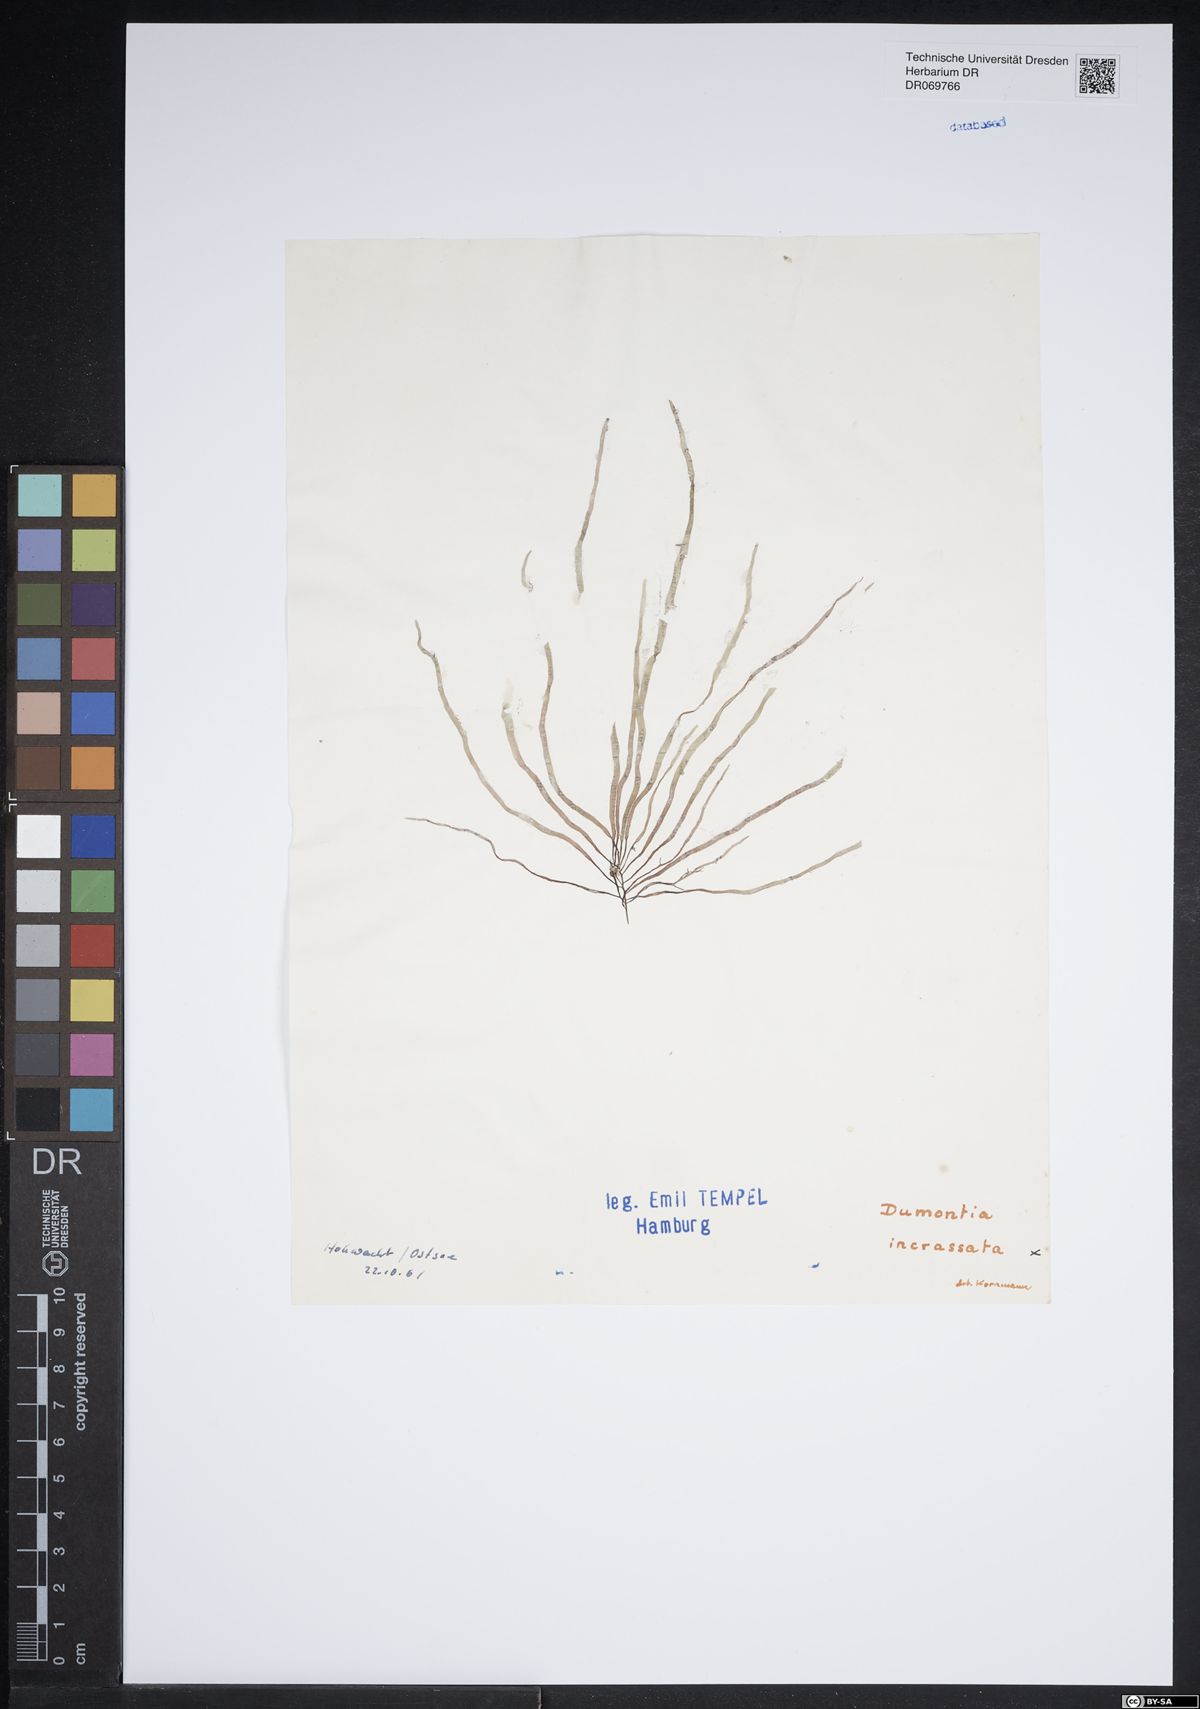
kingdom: Plantae
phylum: Rhodophyta
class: Florideophyceae
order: Gigartinales
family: Dumontiaceae
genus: Dumontia
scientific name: Dumontia contorta
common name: Worm weed
